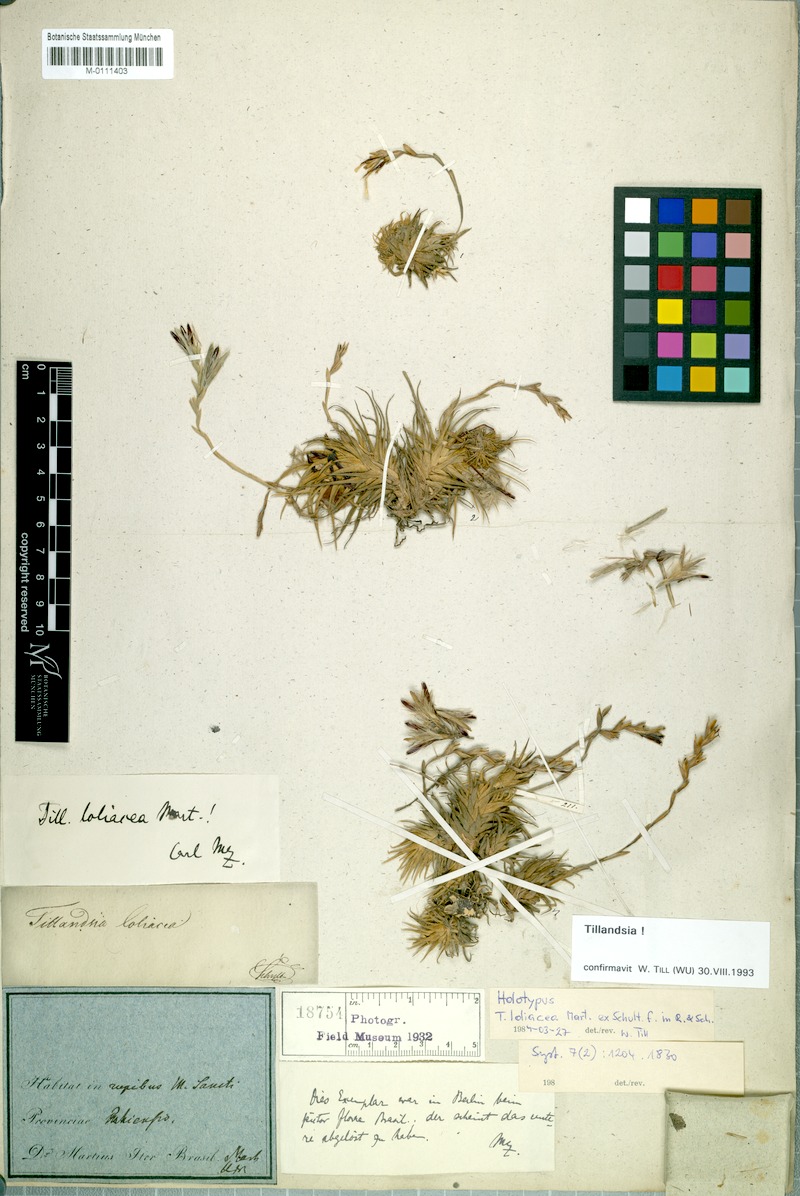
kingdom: Plantae
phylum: Tracheophyta
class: Liliopsida
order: Poales
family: Bromeliaceae
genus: Tillandsia
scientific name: Tillandsia loliacea
